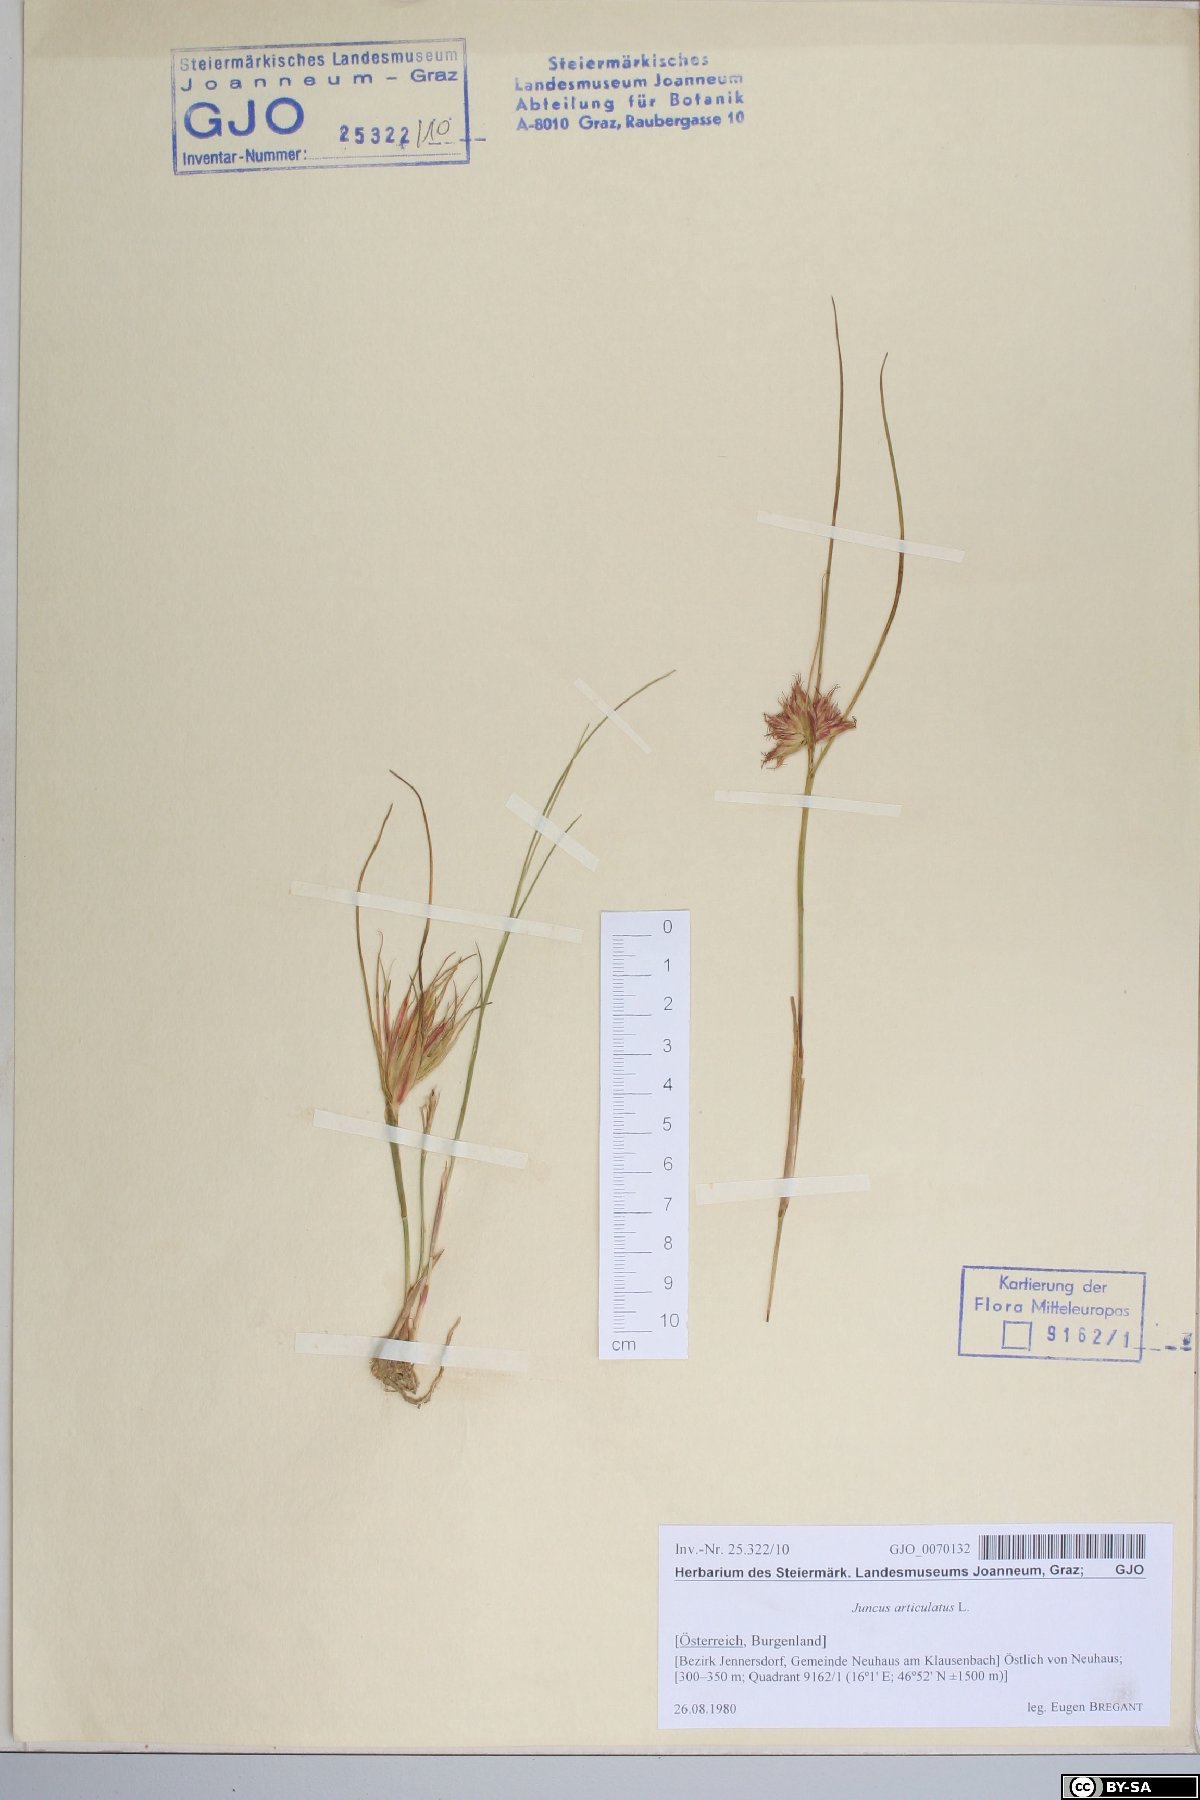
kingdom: Plantae
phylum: Tracheophyta
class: Liliopsida
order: Poales
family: Juncaceae
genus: Juncus
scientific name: Juncus articulatus
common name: Jointed rush
